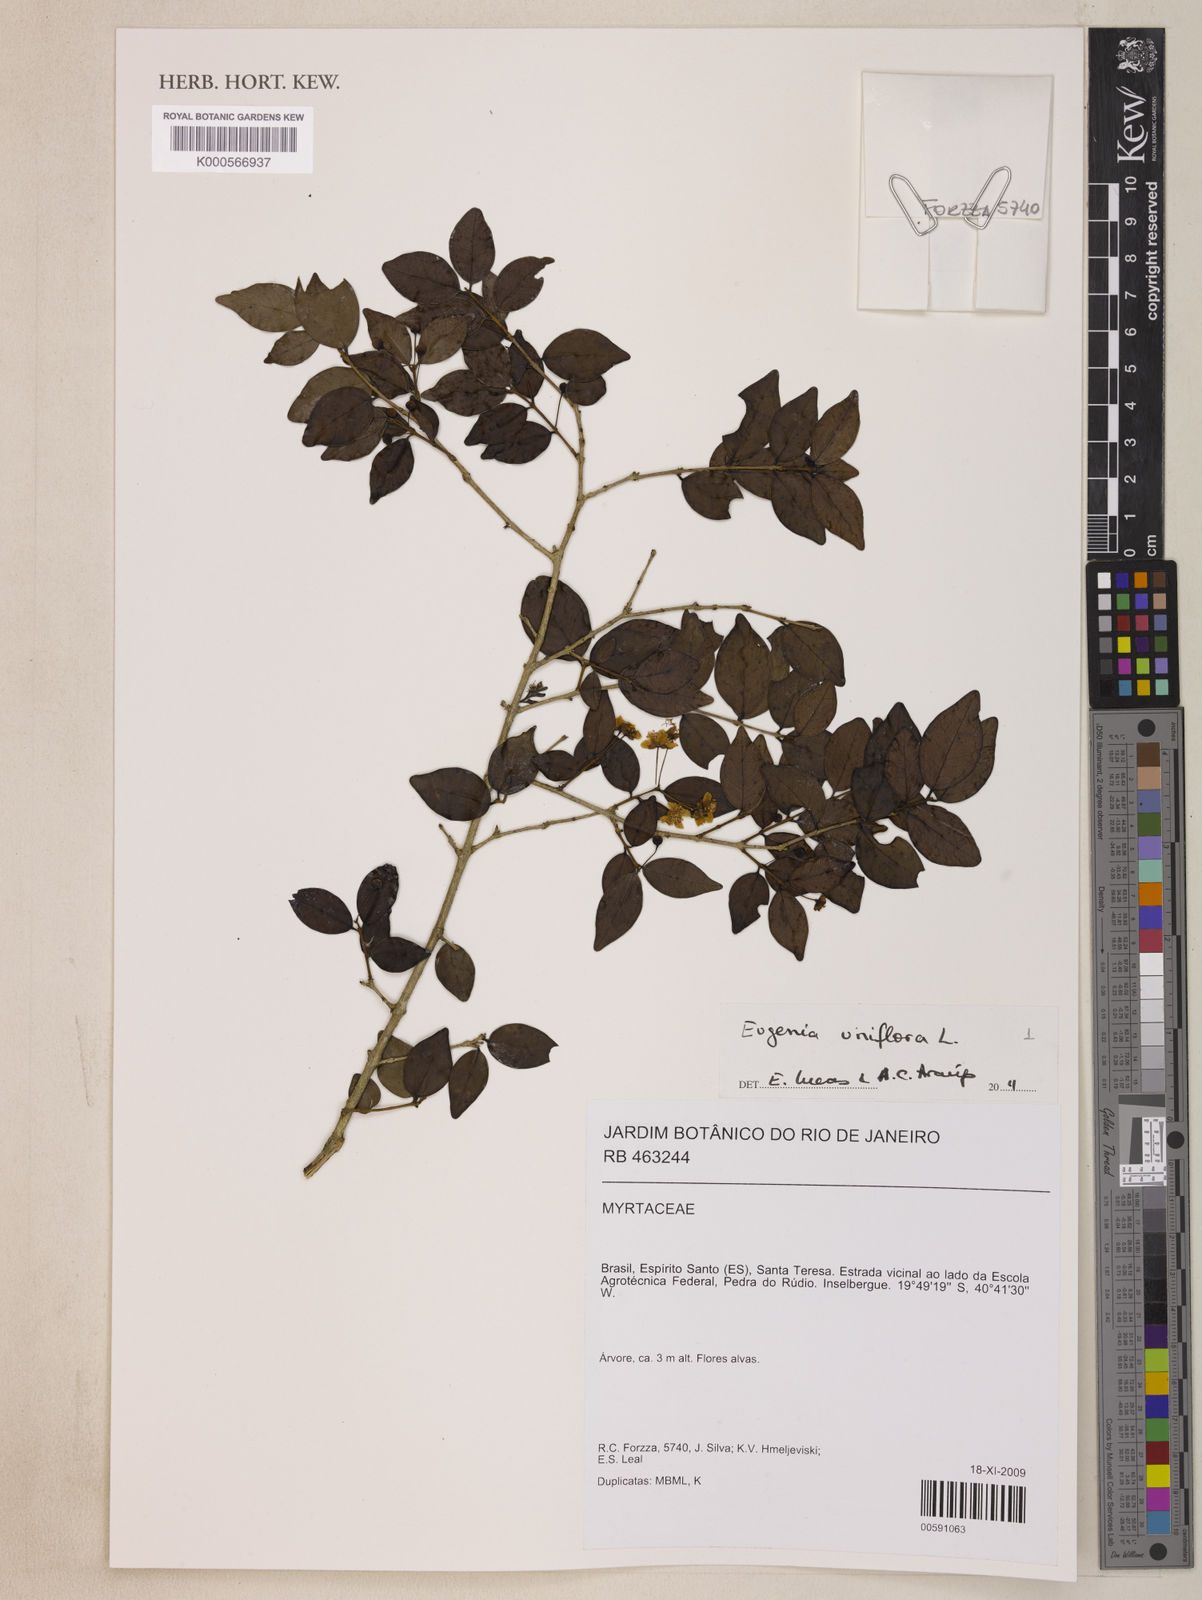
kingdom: Plantae
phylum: Tracheophyta
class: Magnoliopsida
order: Myrtales
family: Myrtaceae
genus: Eugenia
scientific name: Eugenia uniflora
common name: Surinam cherry
